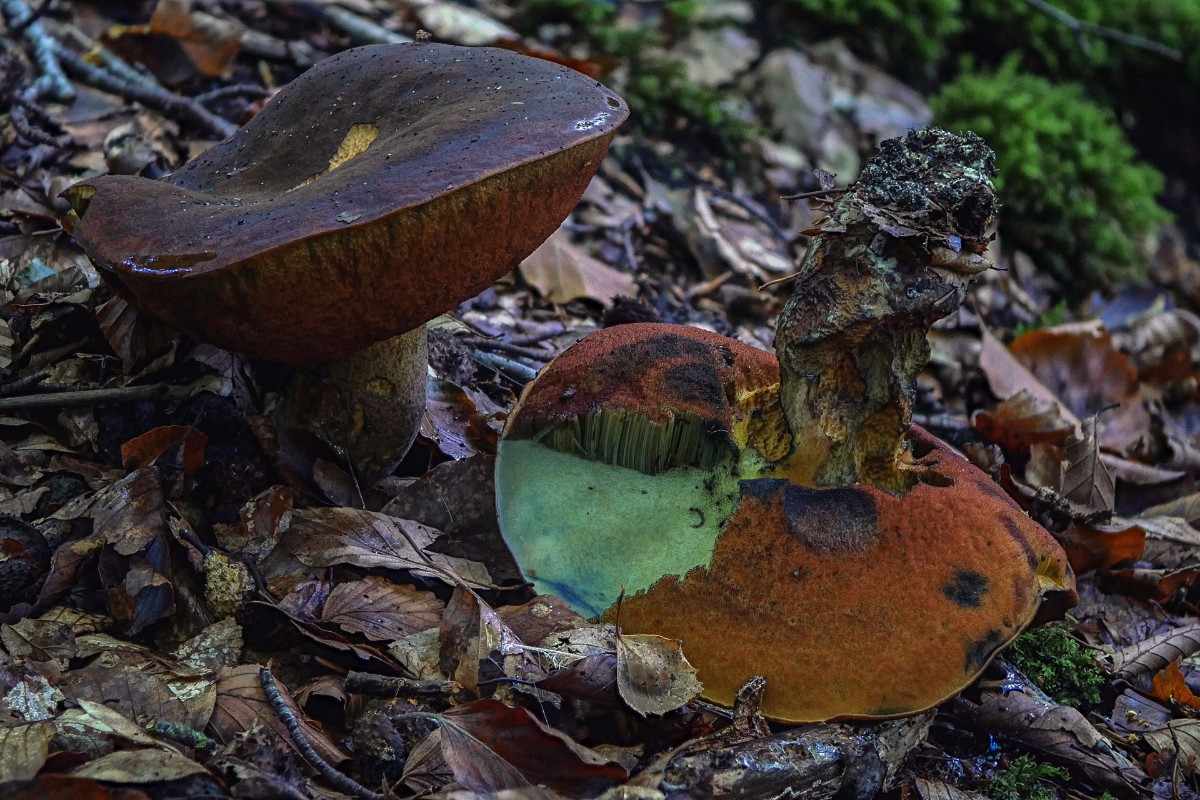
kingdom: Fungi
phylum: Basidiomycota
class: Agaricomycetes
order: Boletales
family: Boletaceae
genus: Neoboletus
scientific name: Neoboletus erythropus
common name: punktstokket indigorørhat
